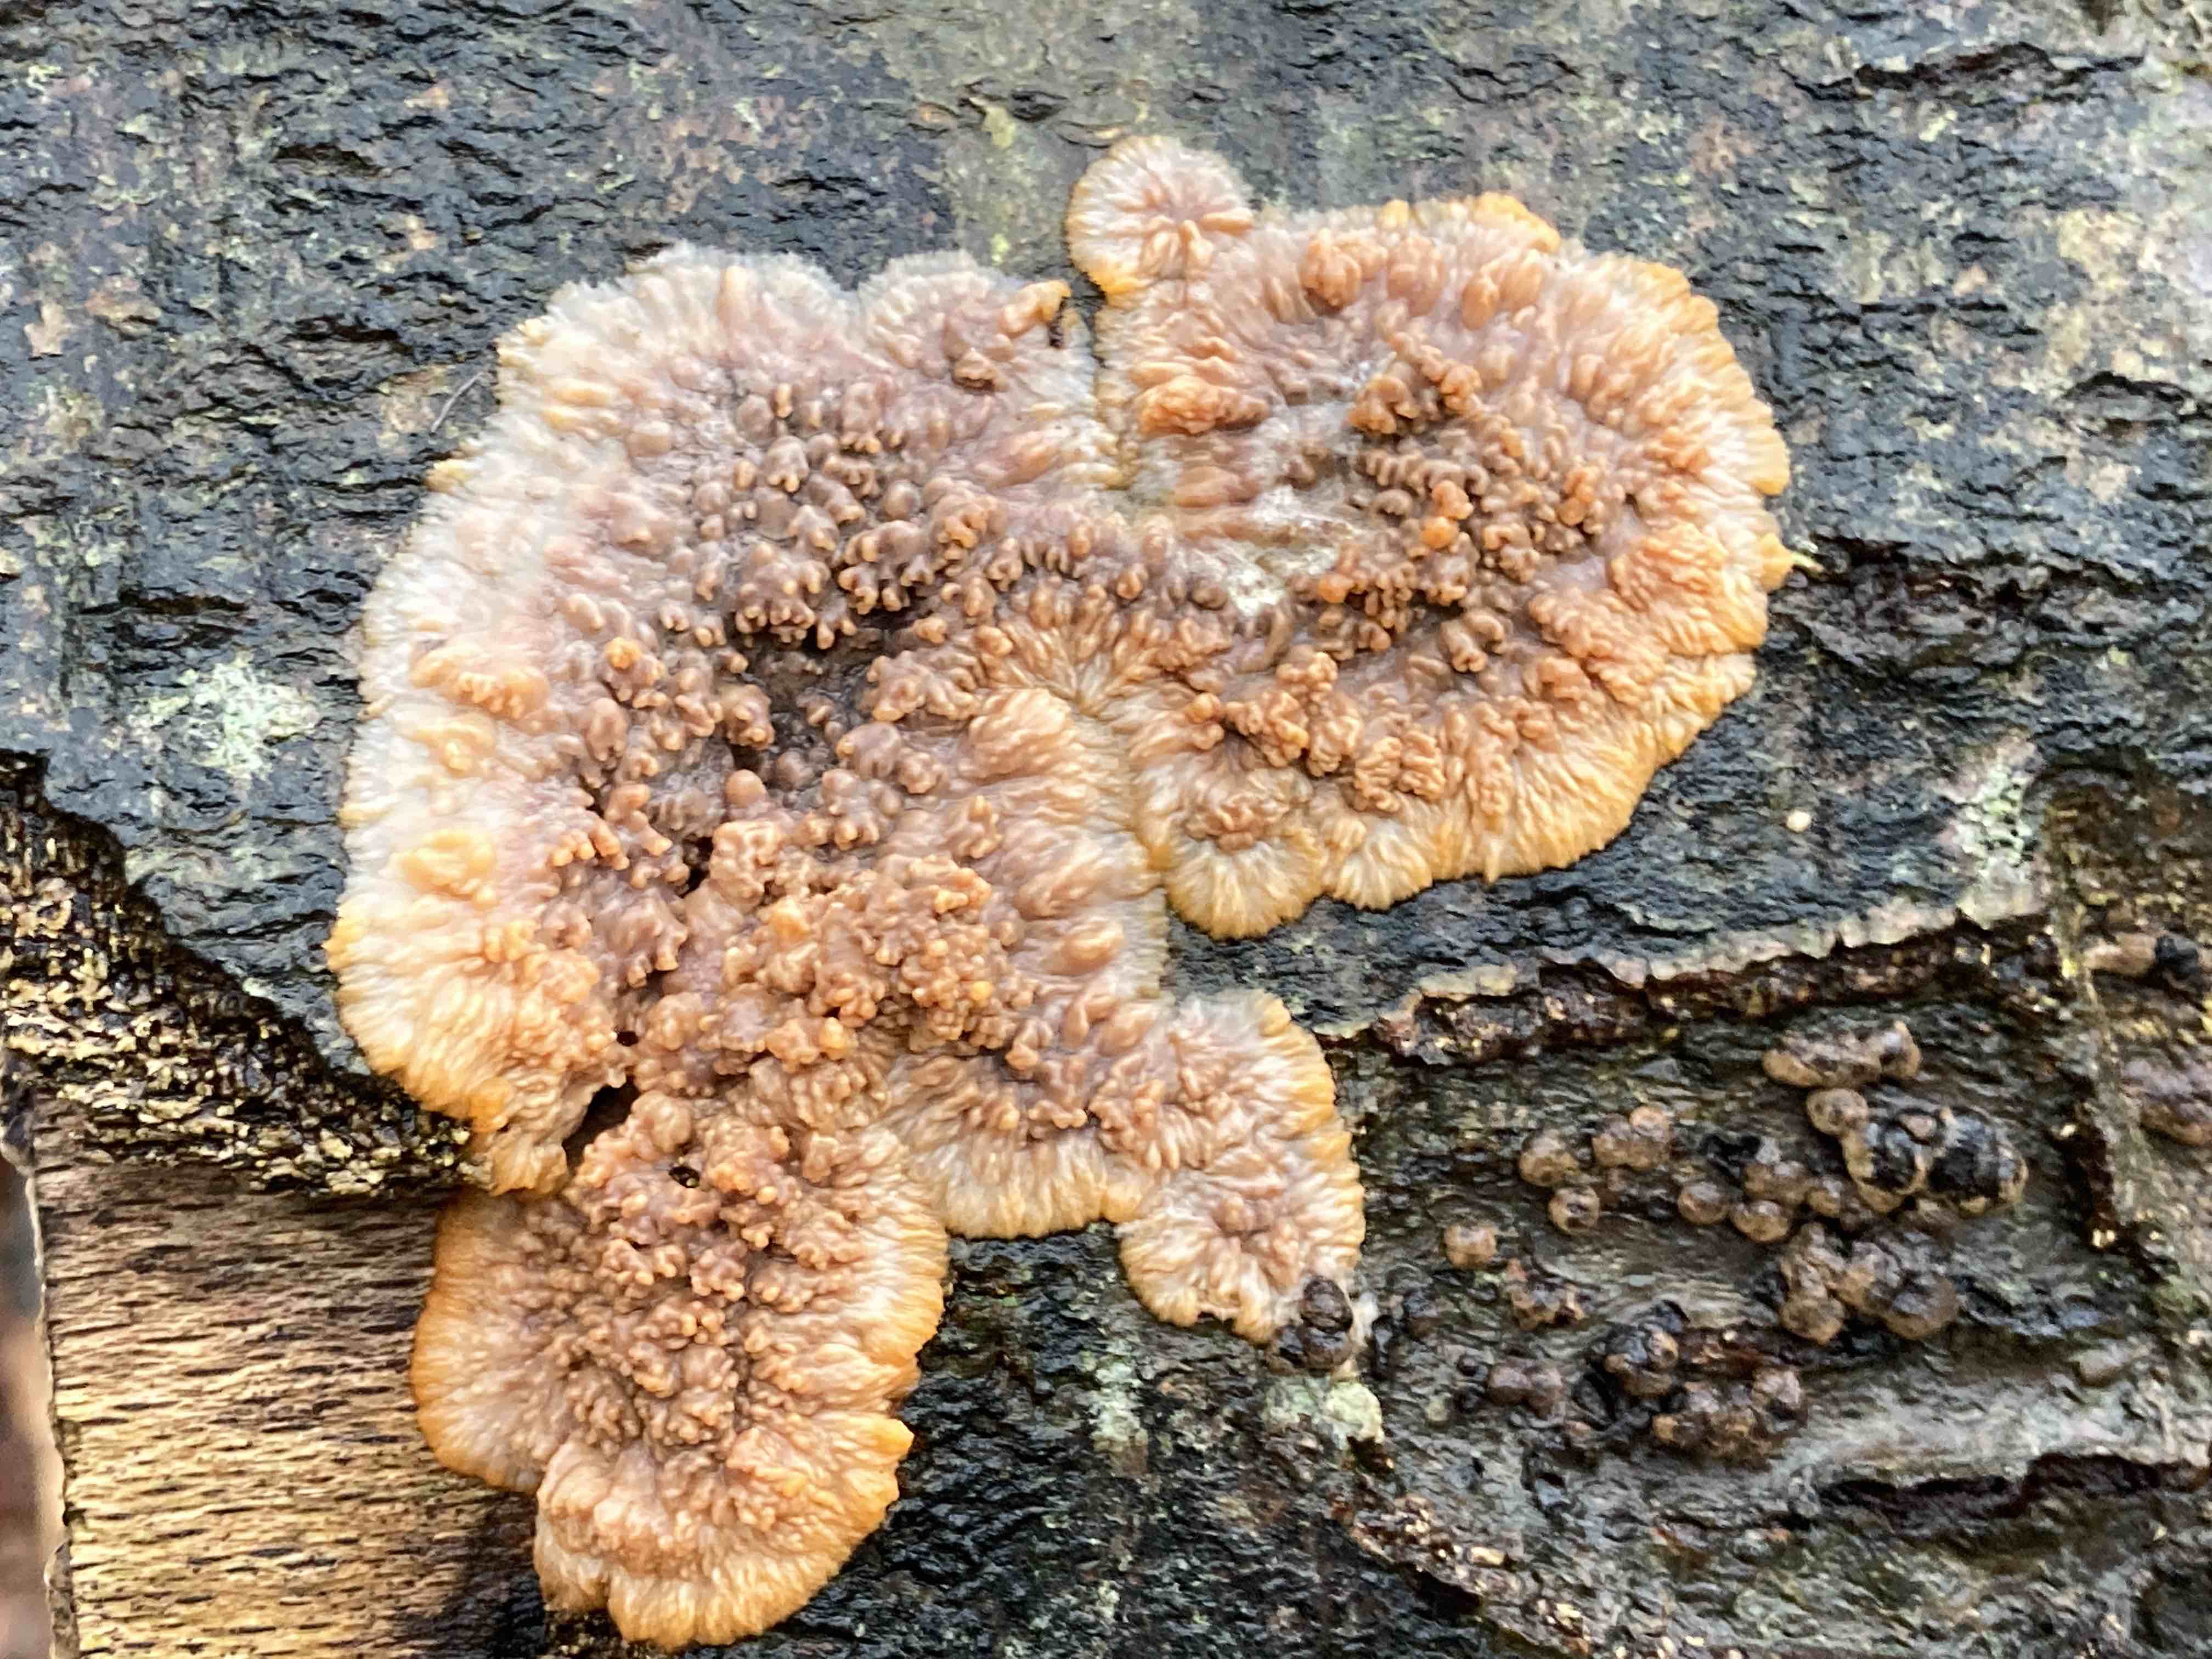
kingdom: Fungi
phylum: Basidiomycota
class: Agaricomycetes
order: Polyporales
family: Meruliaceae
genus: Phlebia
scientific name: Phlebia radiata
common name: stråle-åresvamp
